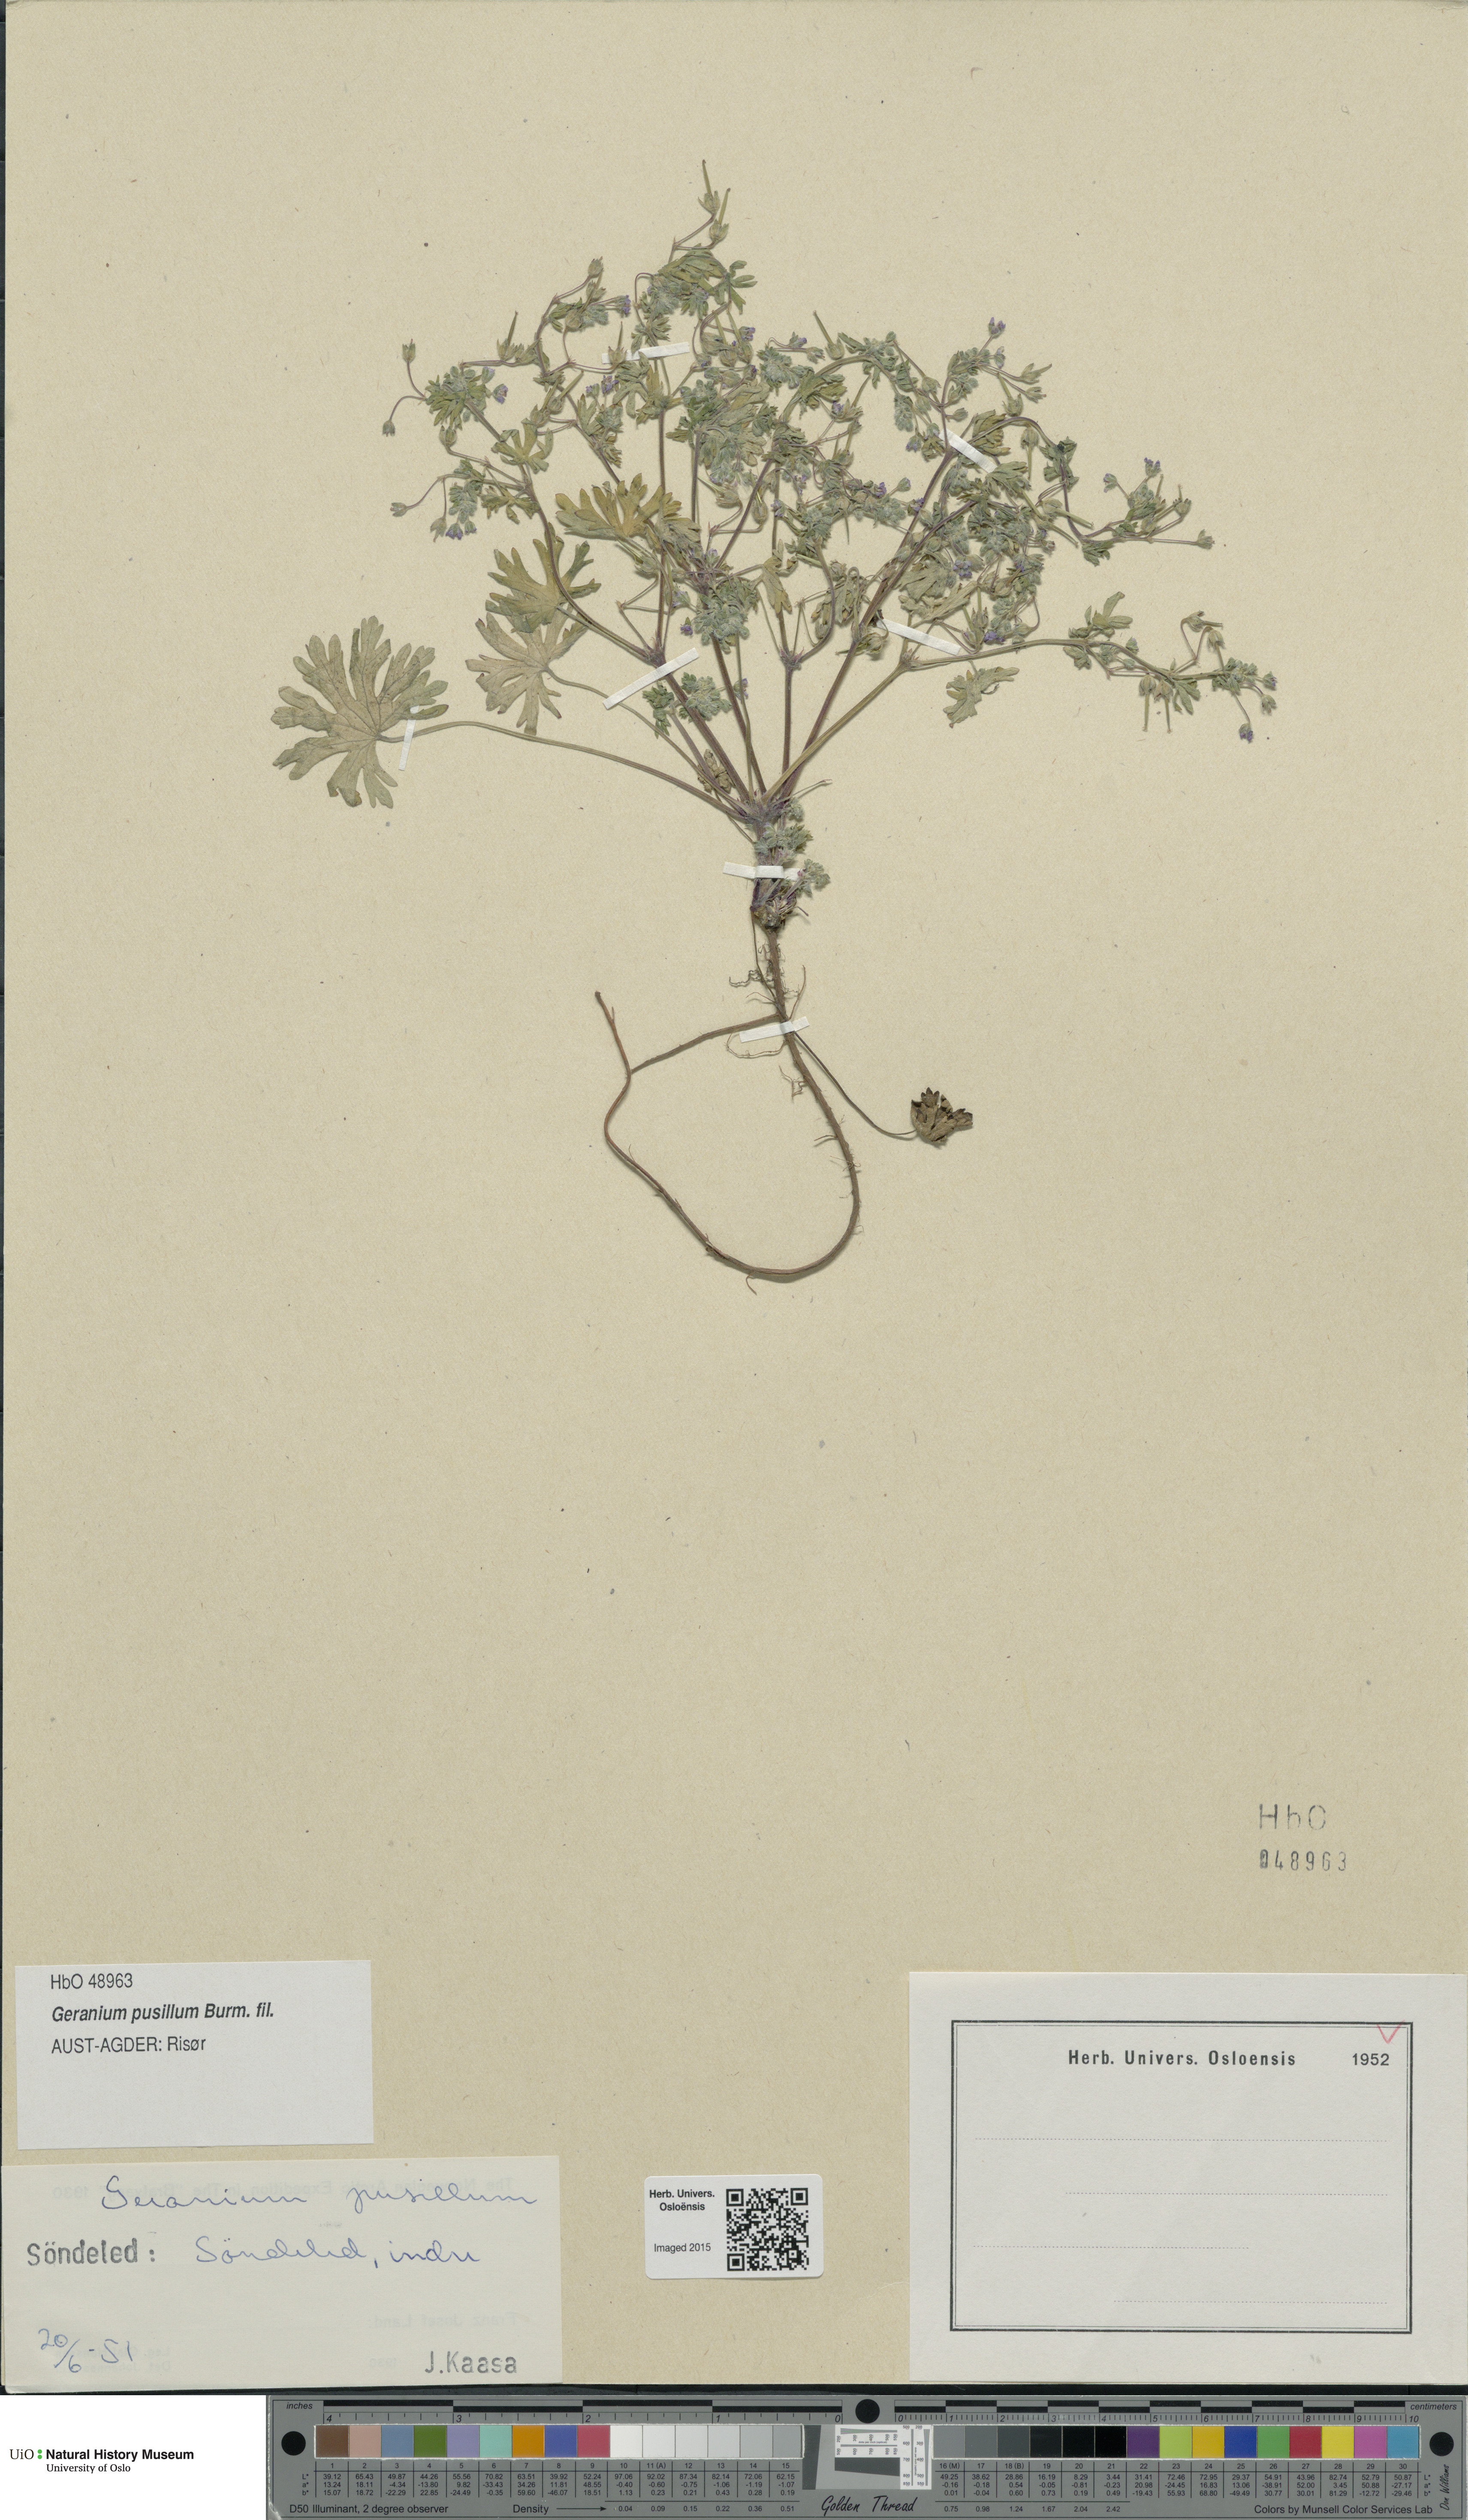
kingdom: Plantae
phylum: Tracheophyta
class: Magnoliopsida
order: Geraniales
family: Geraniaceae
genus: Geranium
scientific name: Geranium pusillum
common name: Small geranium
